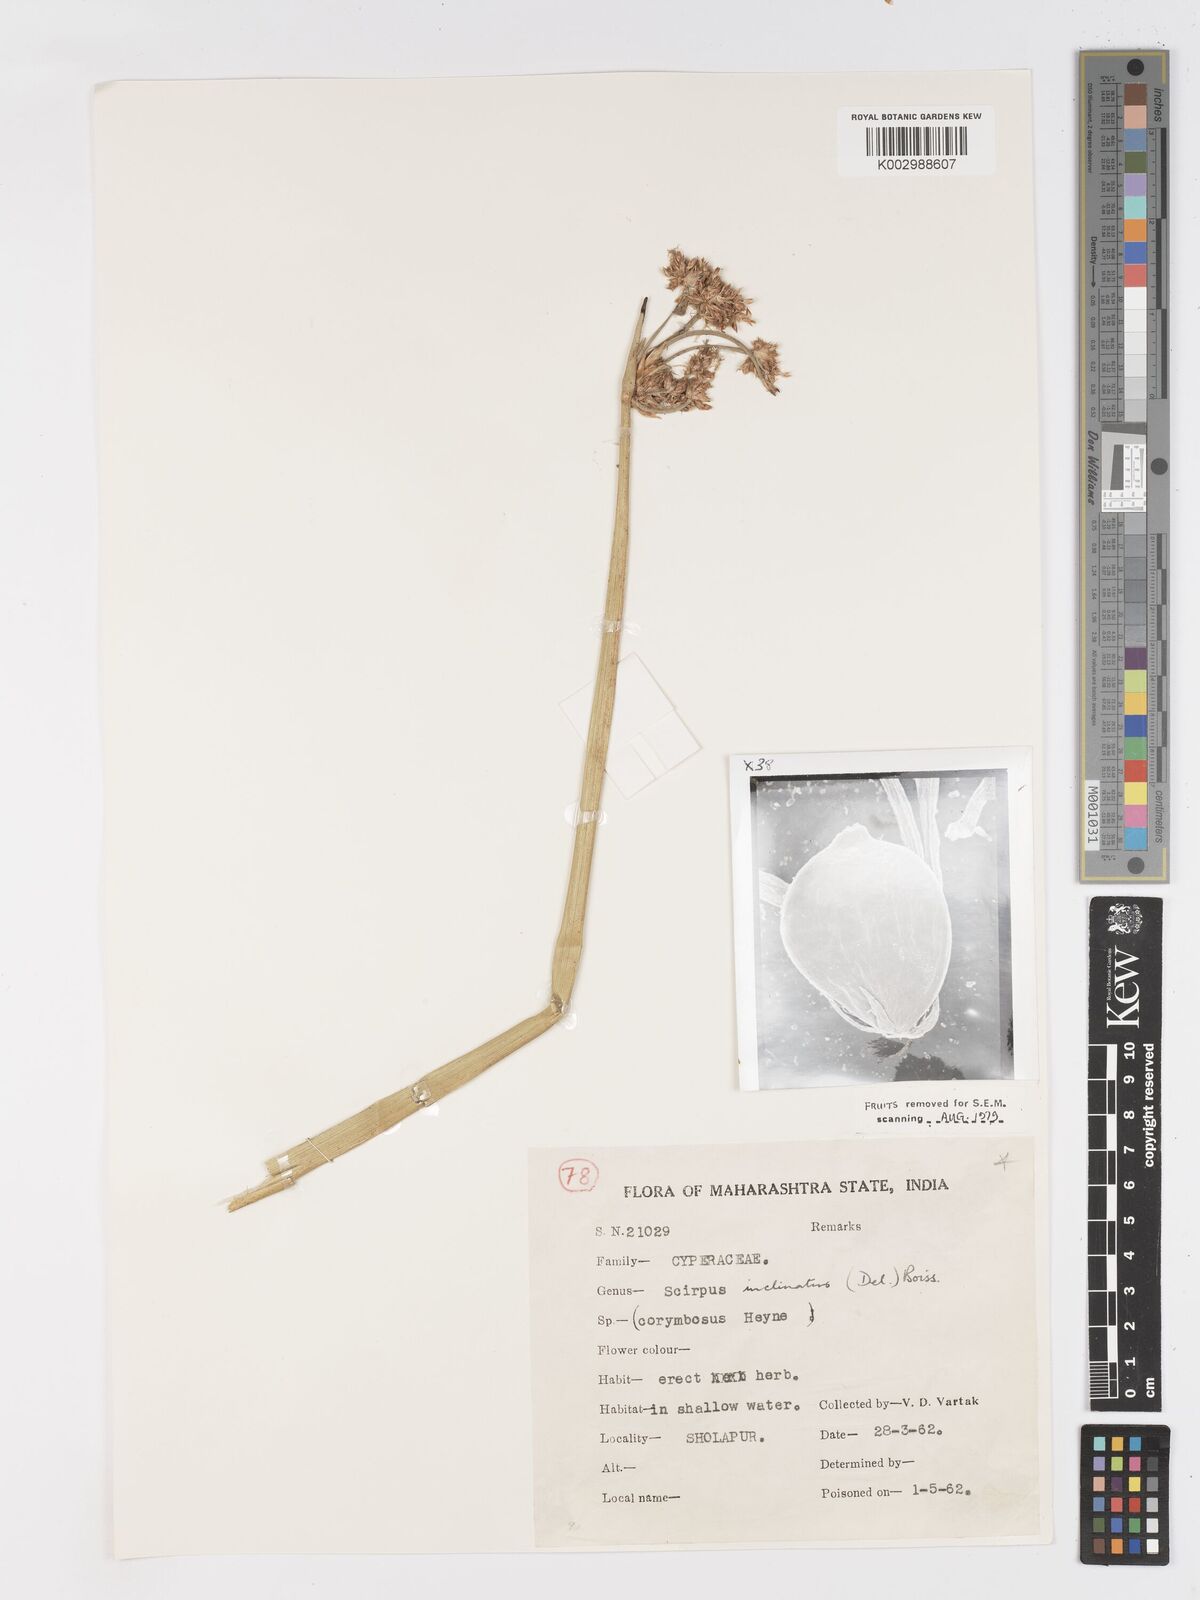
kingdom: Plantae
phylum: Tracheophyta
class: Liliopsida
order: Poales
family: Cyperaceae
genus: Schoenoplectiella
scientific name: Schoenoplectiella corymbosa
